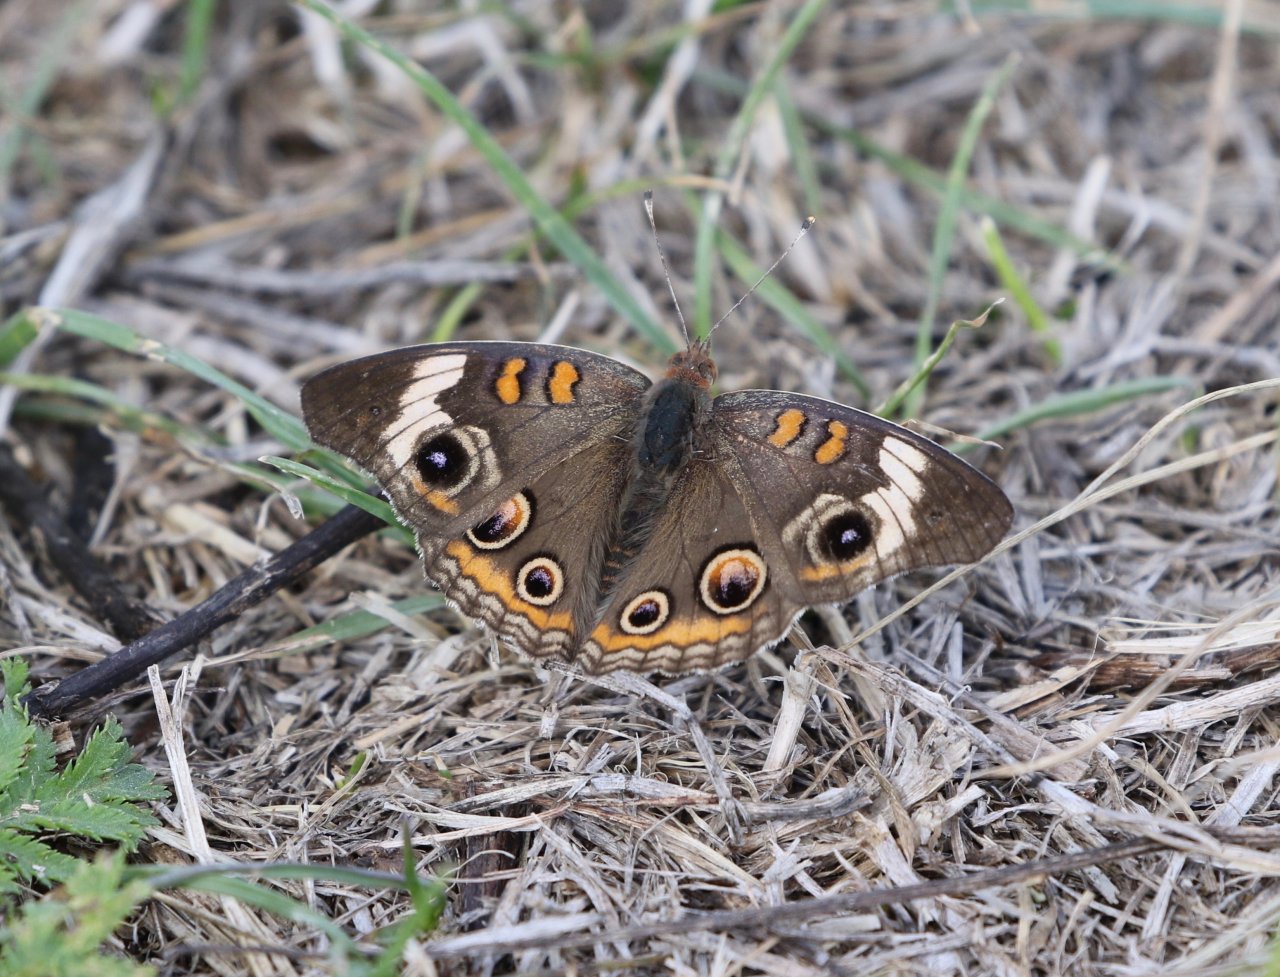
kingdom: Animalia
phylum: Arthropoda
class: Insecta
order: Lepidoptera
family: Nymphalidae
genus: Junonia
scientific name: Junonia coenia
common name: Common Buckeye
